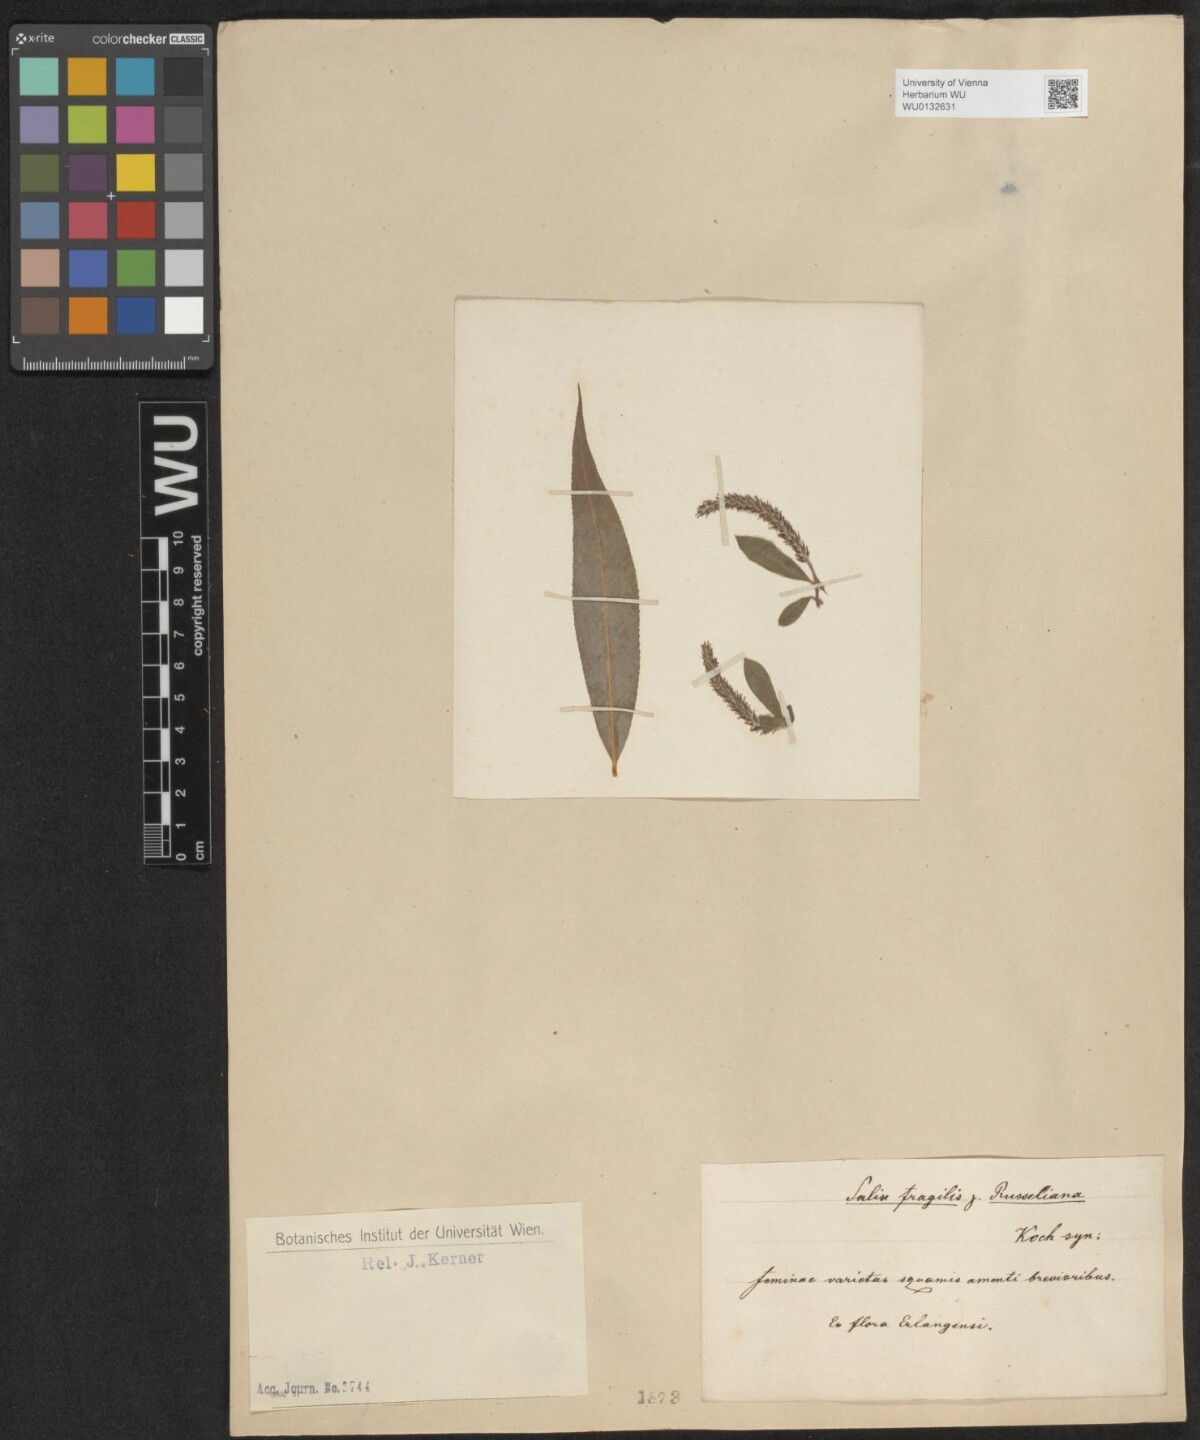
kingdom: Plantae
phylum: Tracheophyta
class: Magnoliopsida
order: Malpighiales
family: Salicaceae
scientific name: Salicaceae
